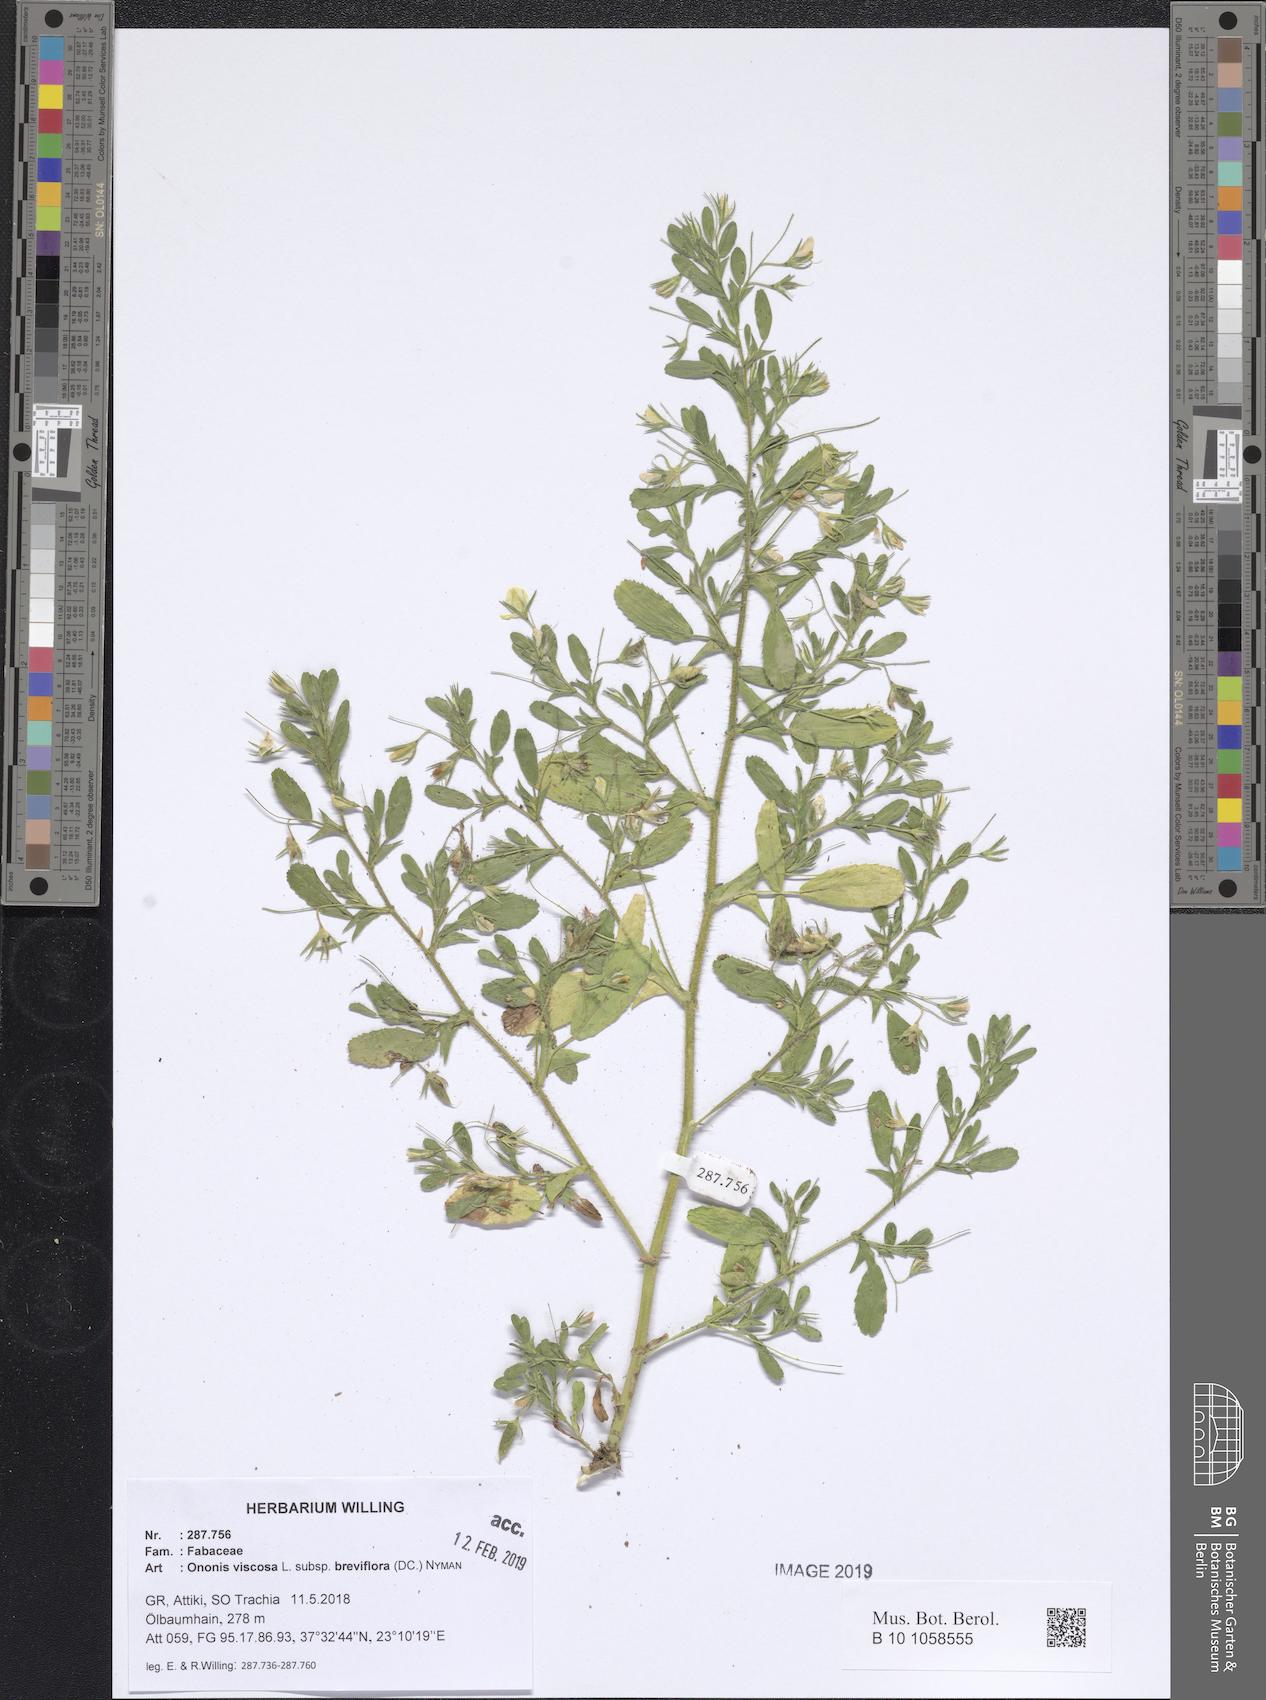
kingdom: Plantae
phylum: Tracheophyta
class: Magnoliopsida
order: Fabales
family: Fabaceae
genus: Ononis
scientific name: Ononis viscosa
